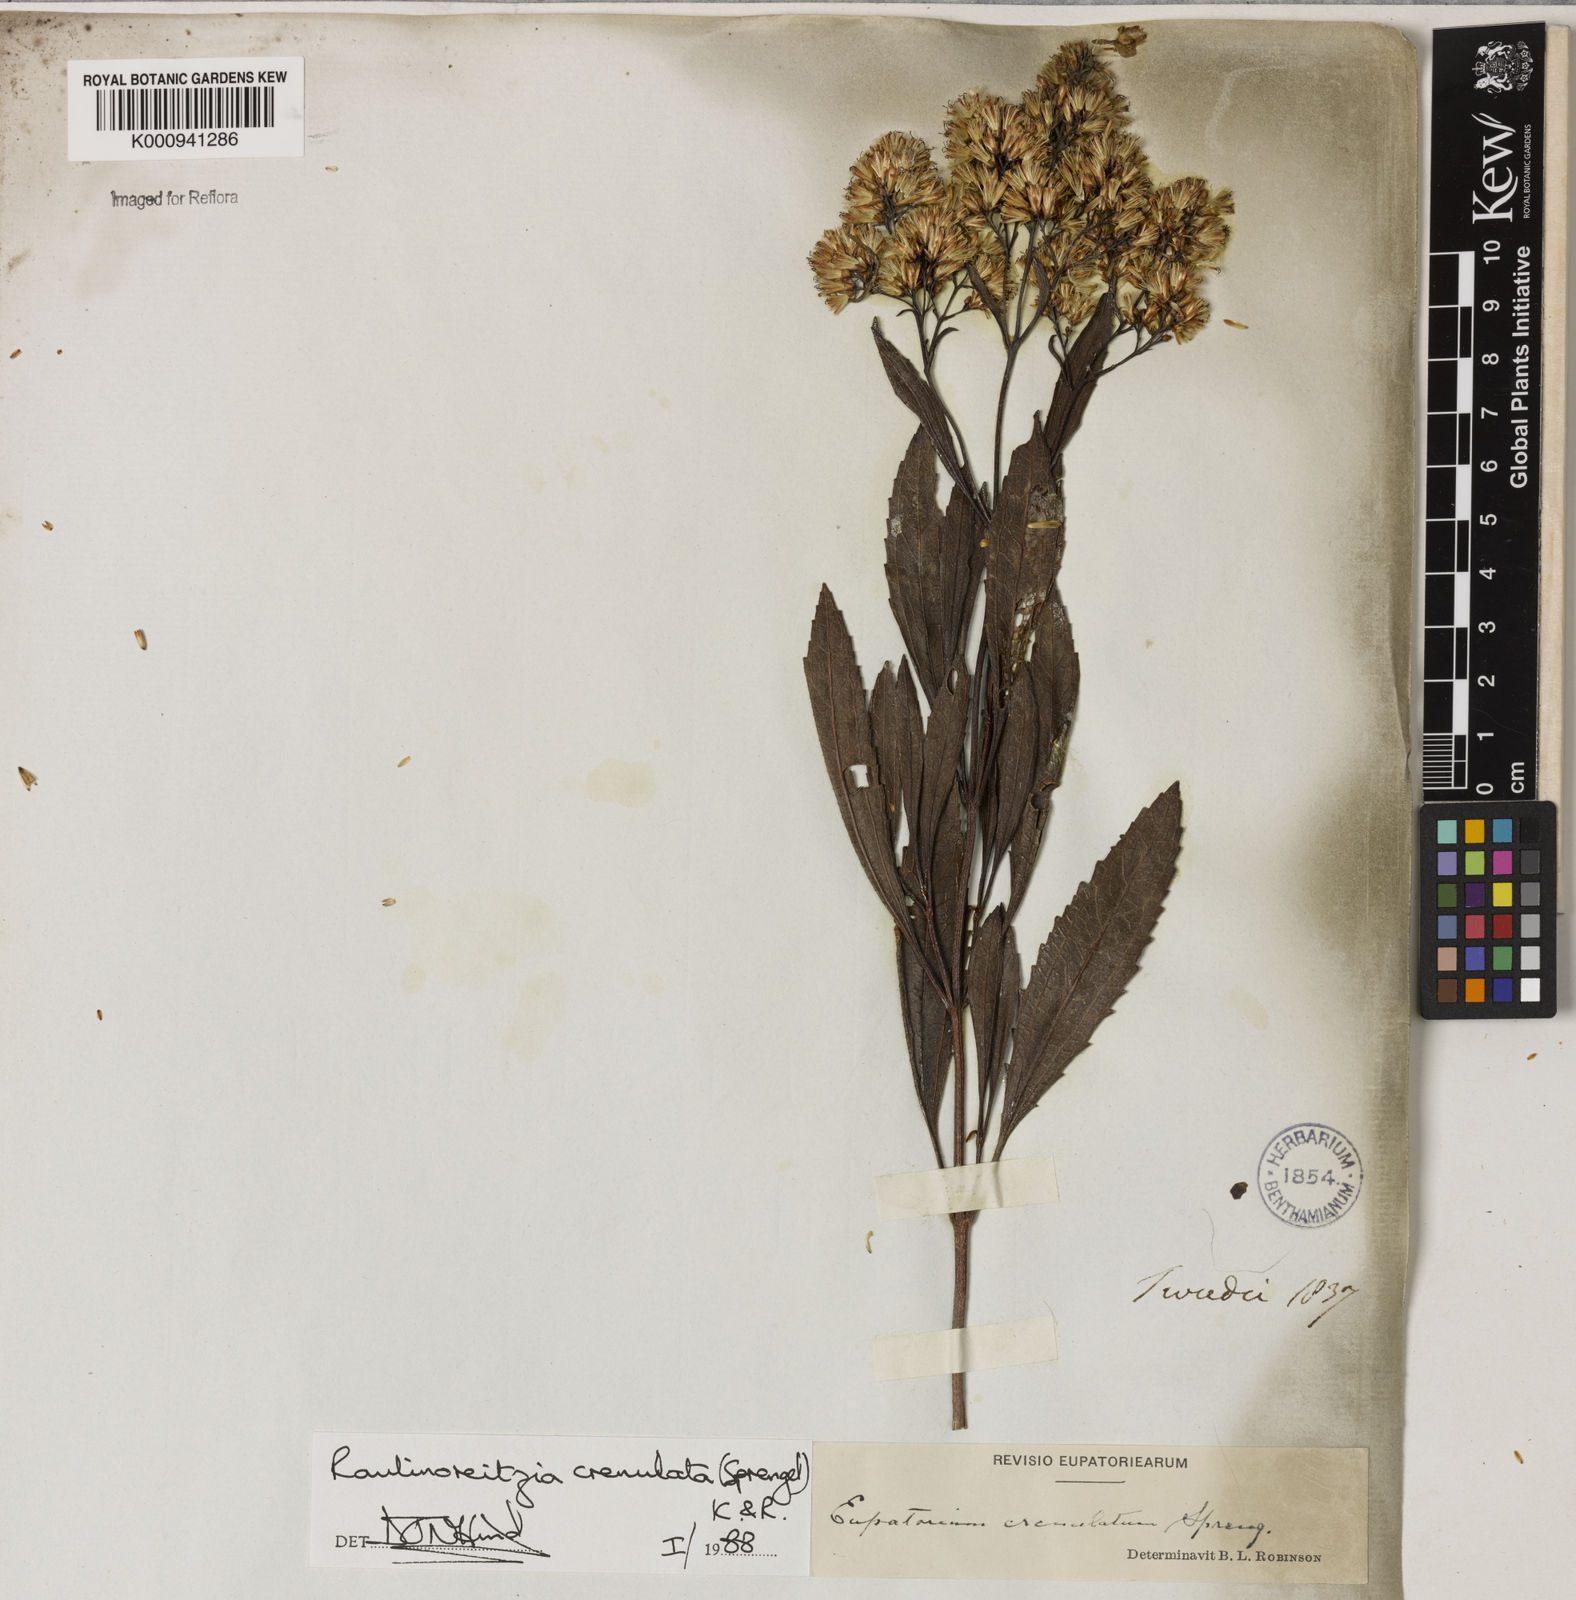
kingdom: Plantae
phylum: Tracheophyta
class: Magnoliopsida
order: Asterales
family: Asteraceae
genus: Raulinoreitzia
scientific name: Raulinoreitzia crenulata
